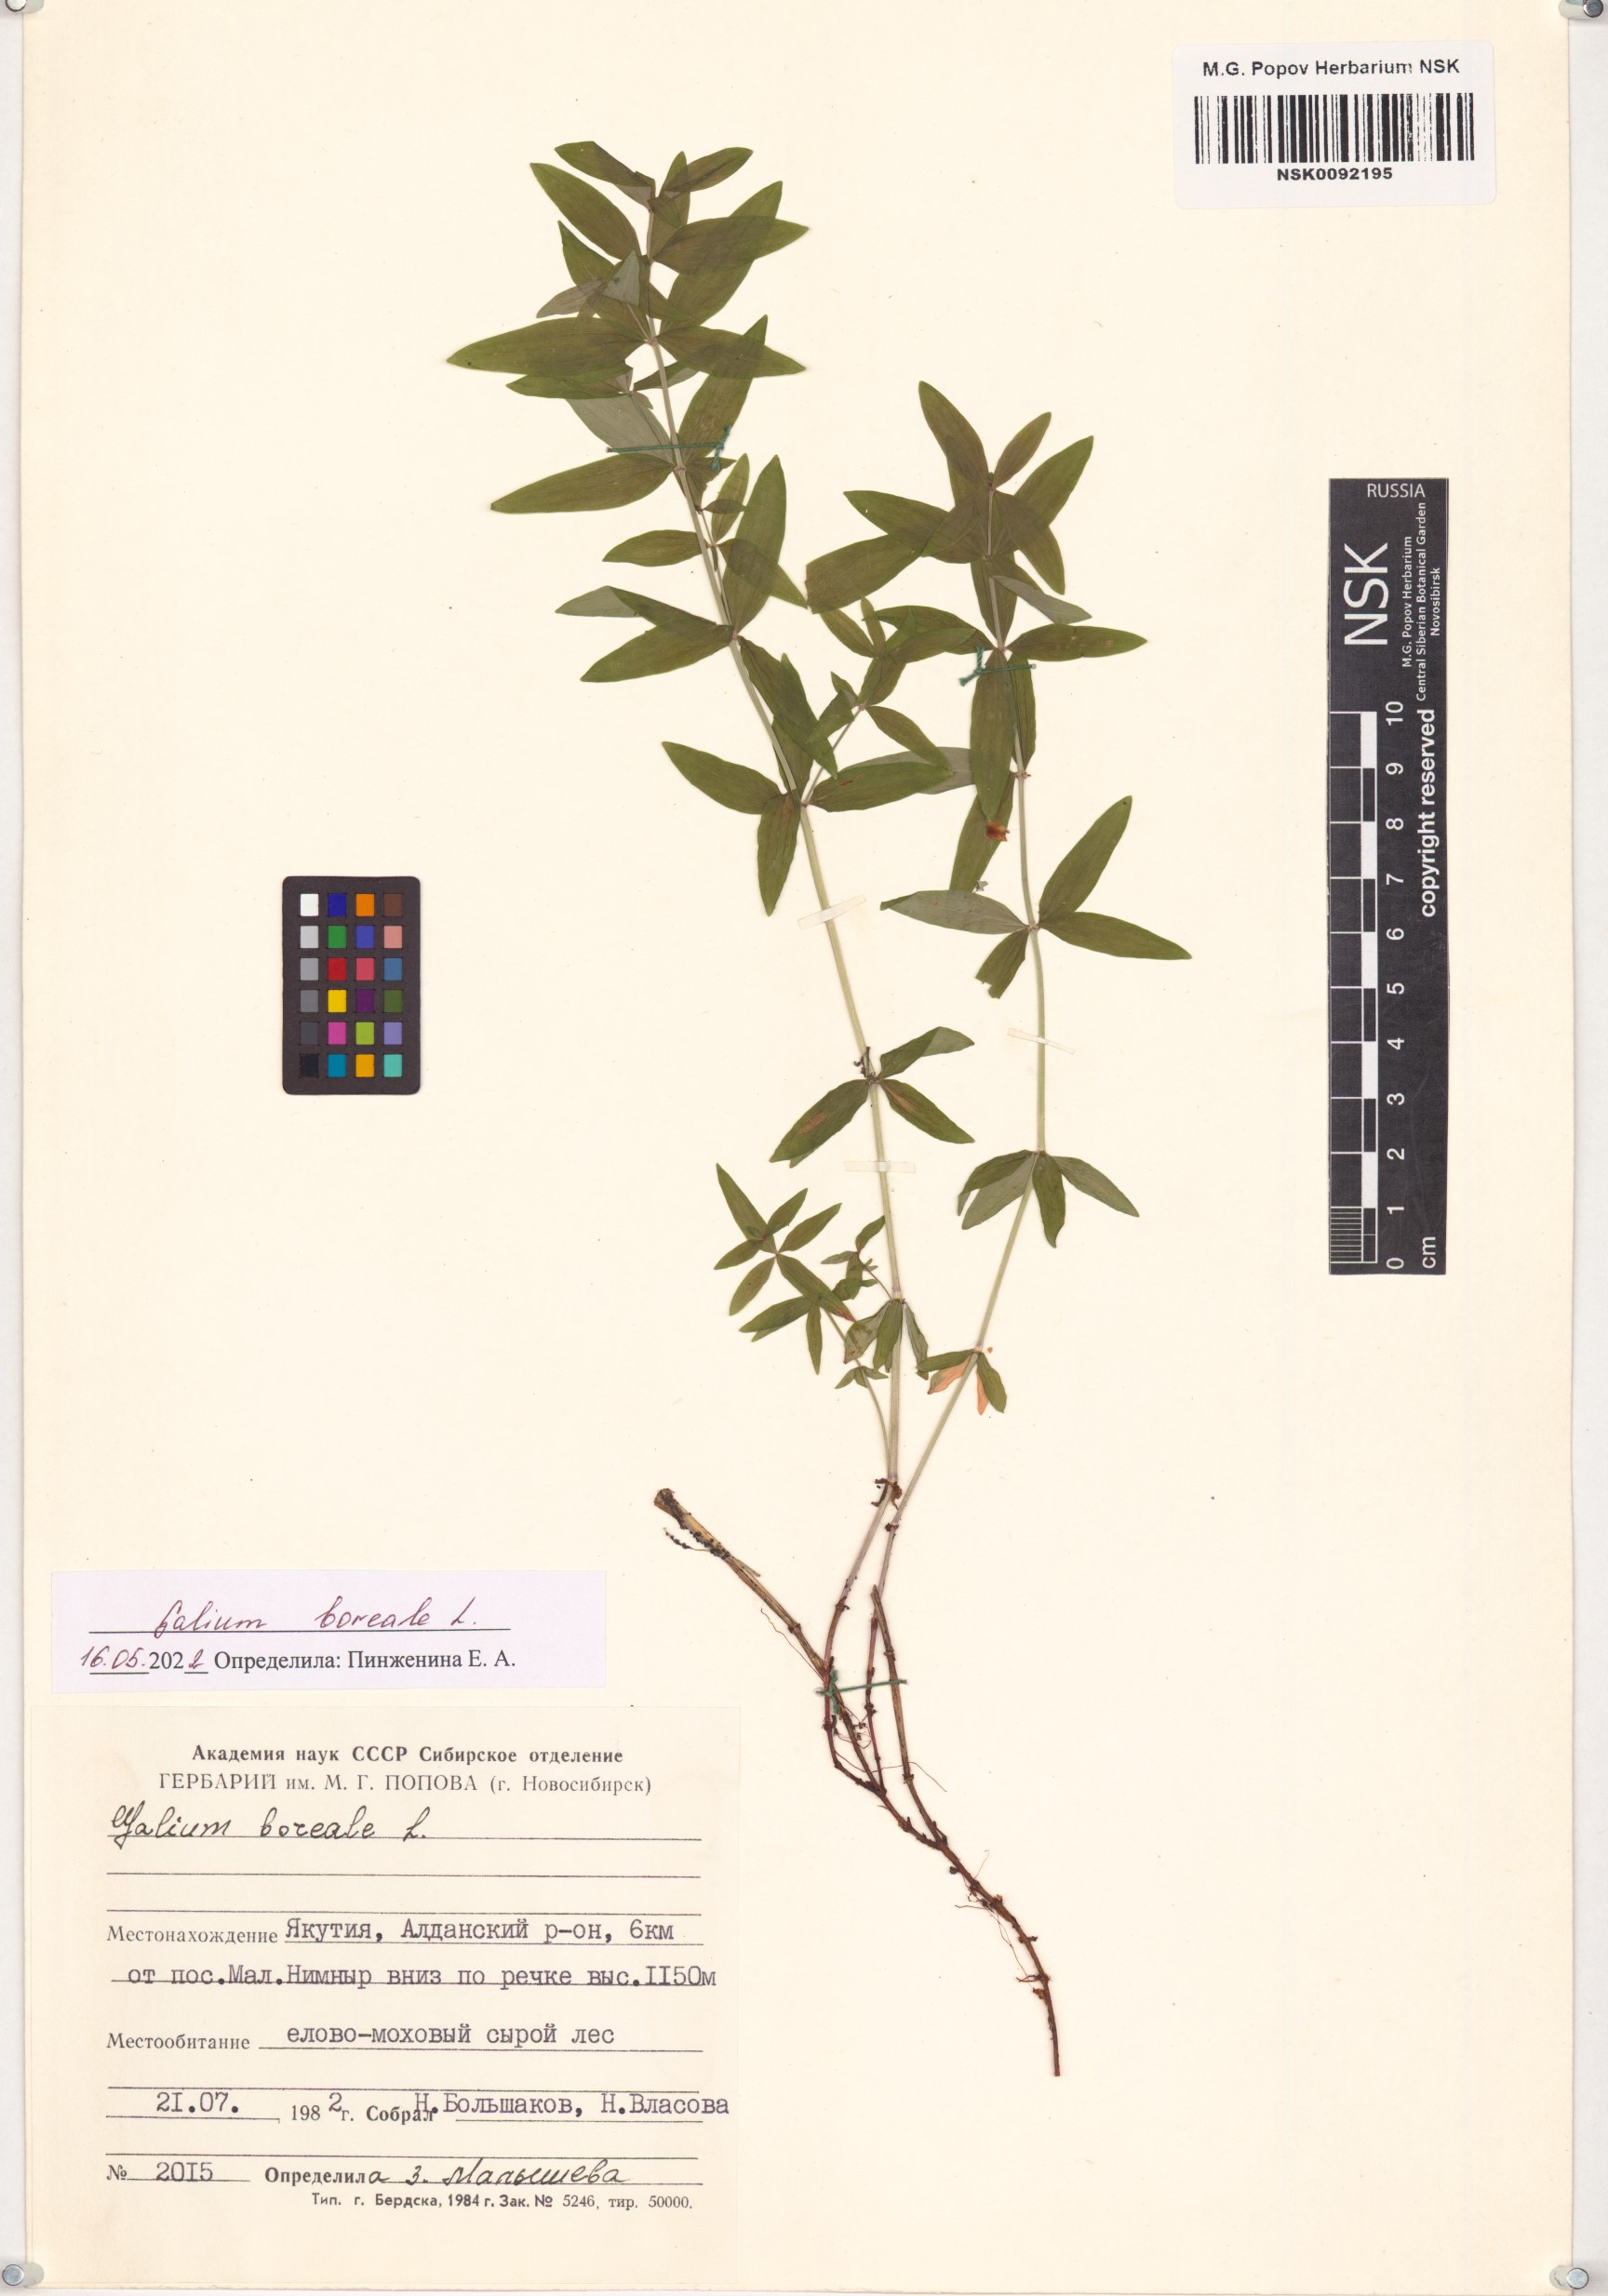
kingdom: Plantae
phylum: Tracheophyta
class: Magnoliopsida
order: Gentianales
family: Rubiaceae
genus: Galium
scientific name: Galium boreale
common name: Northern bedstraw
